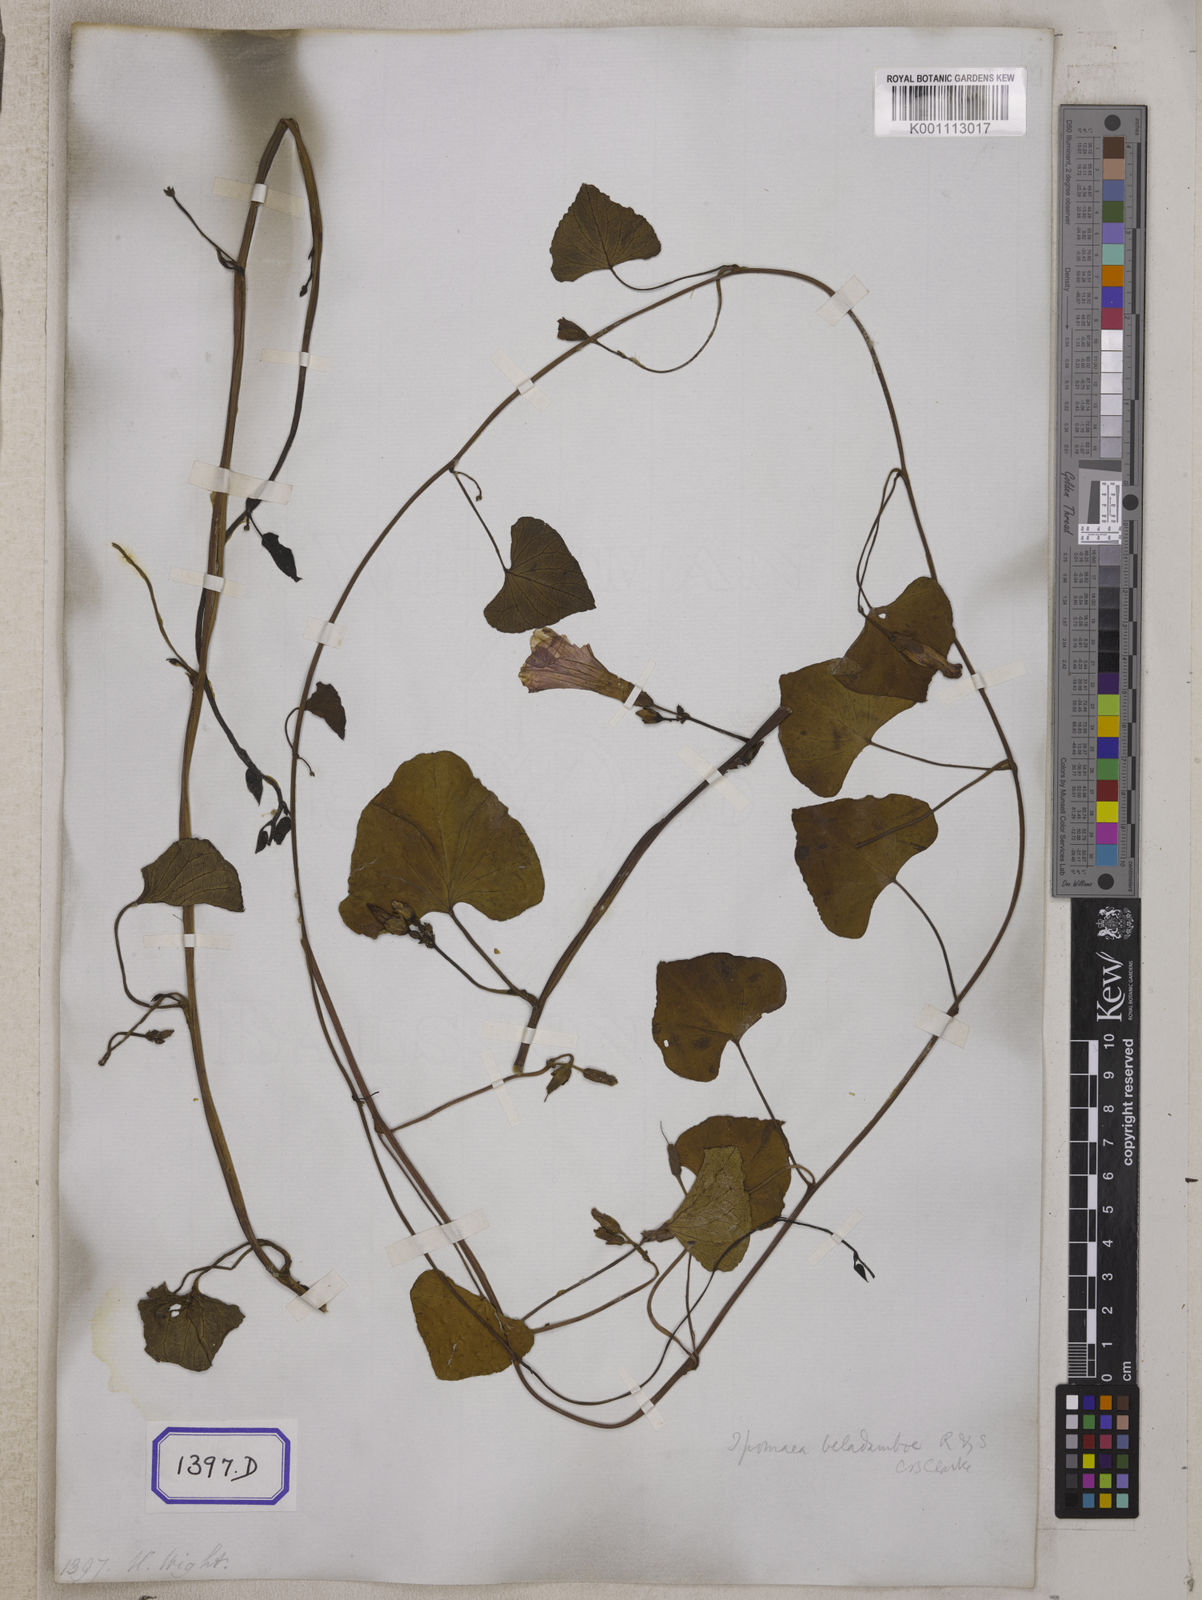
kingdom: Plantae
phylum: Tracheophyta
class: Magnoliopsida
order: Solanales
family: Convolvulaceae
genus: Ipomoea
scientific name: Ipomoea asarifolia
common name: Ginger-leaf morning-glory
